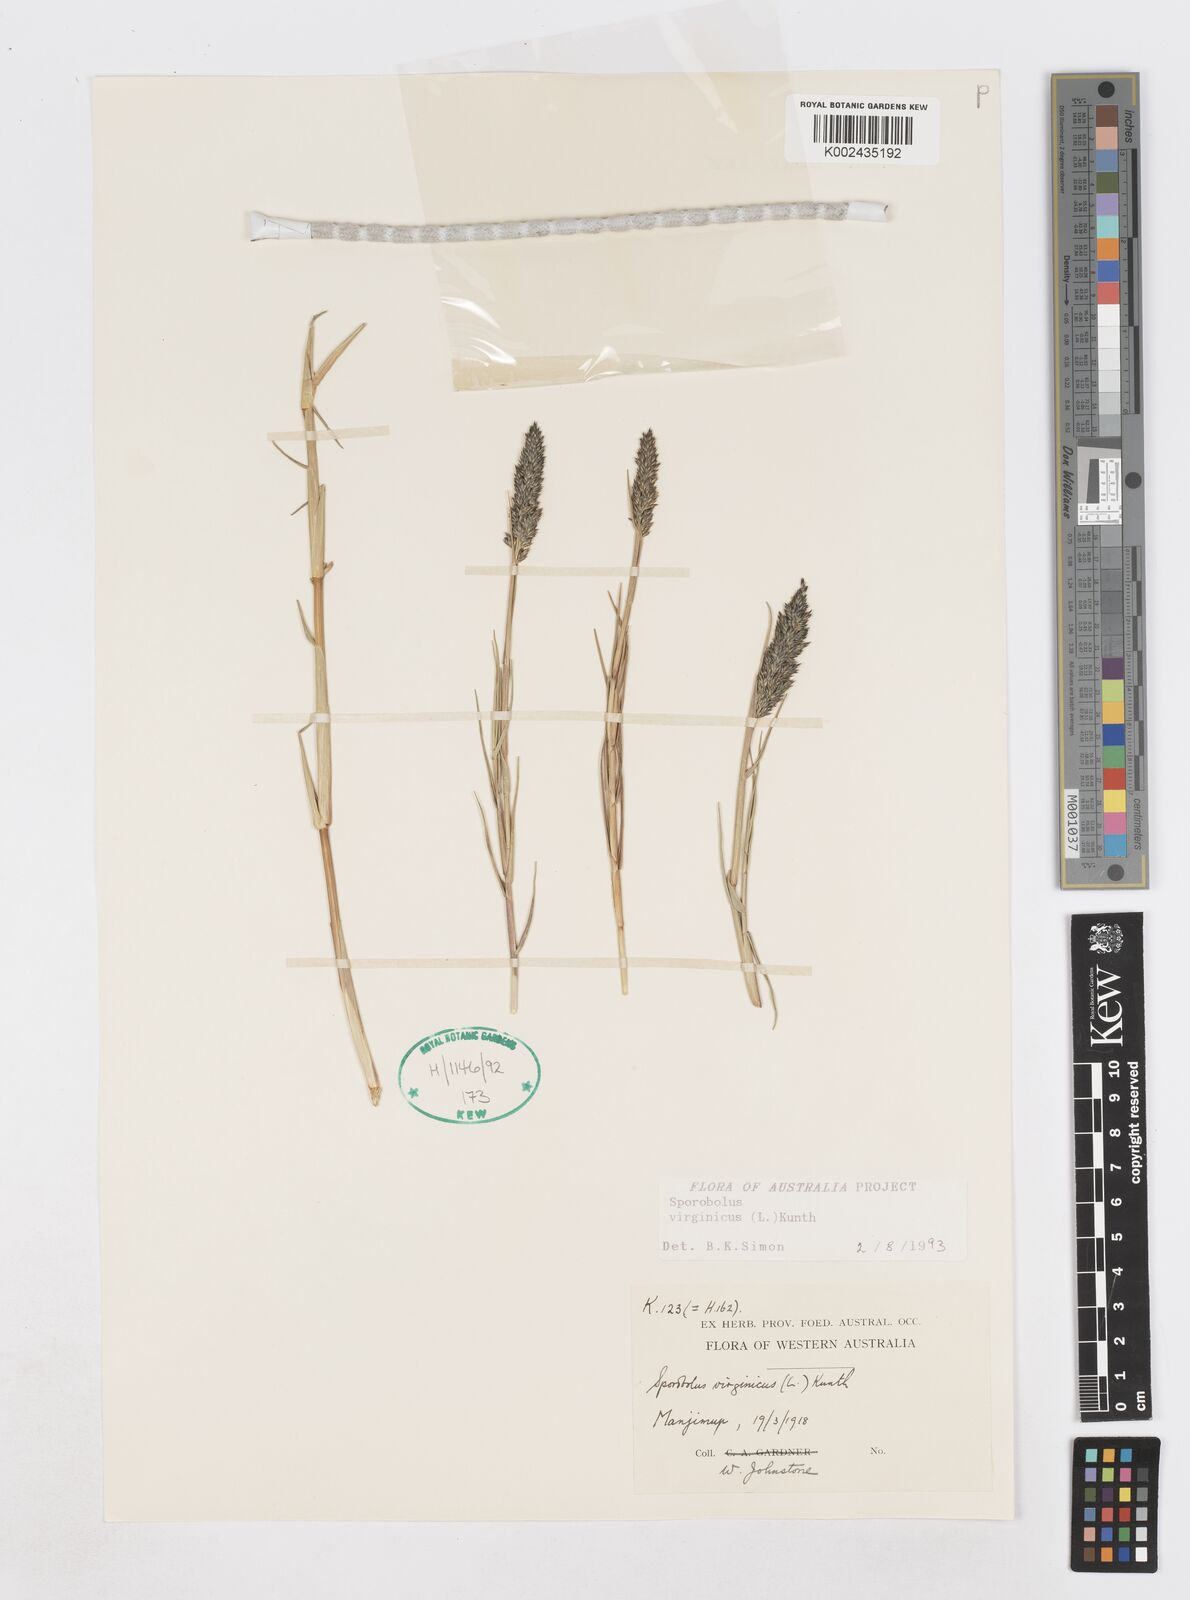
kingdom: Plantae
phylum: Tracheophyta
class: Liliopsida
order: Poales
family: Poaceae
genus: Sporobolus
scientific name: Sporobolus virginicus
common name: Beach dropseed
